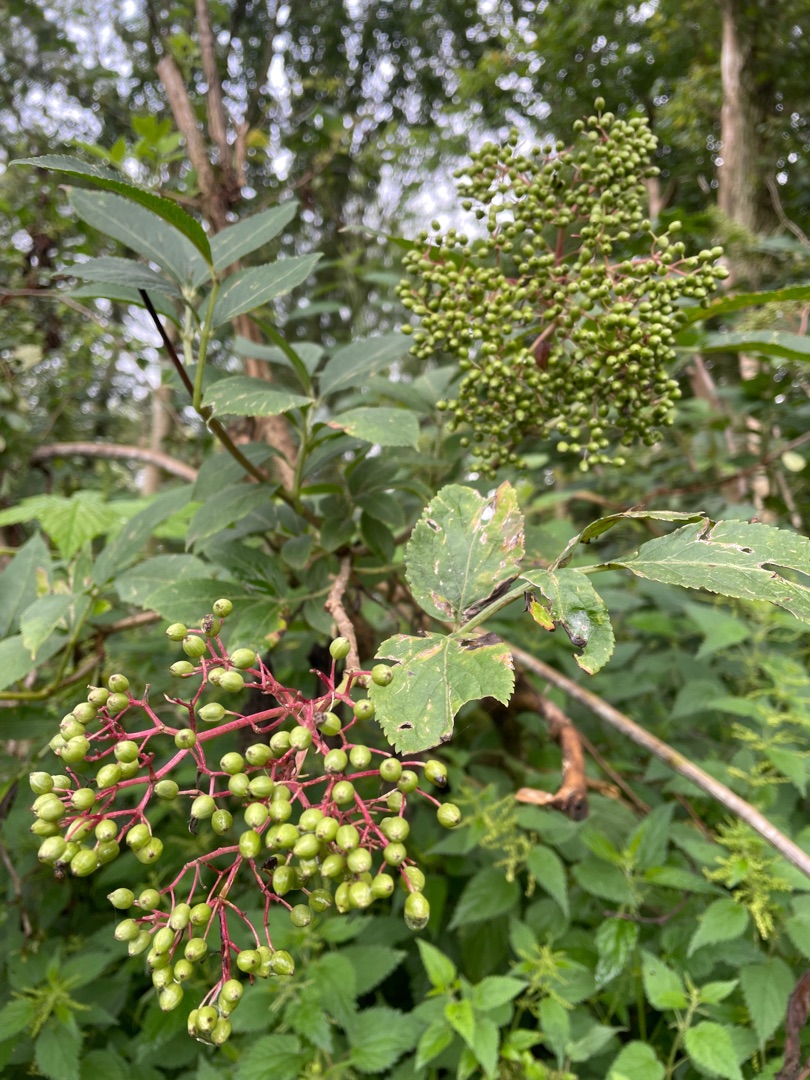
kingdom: Plantae
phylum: Tracheophyta
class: Magnoliopsida
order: Dipsacales
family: Viburnaceae
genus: Sambucus
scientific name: Sambucus nigra
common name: Almindelig hyld
